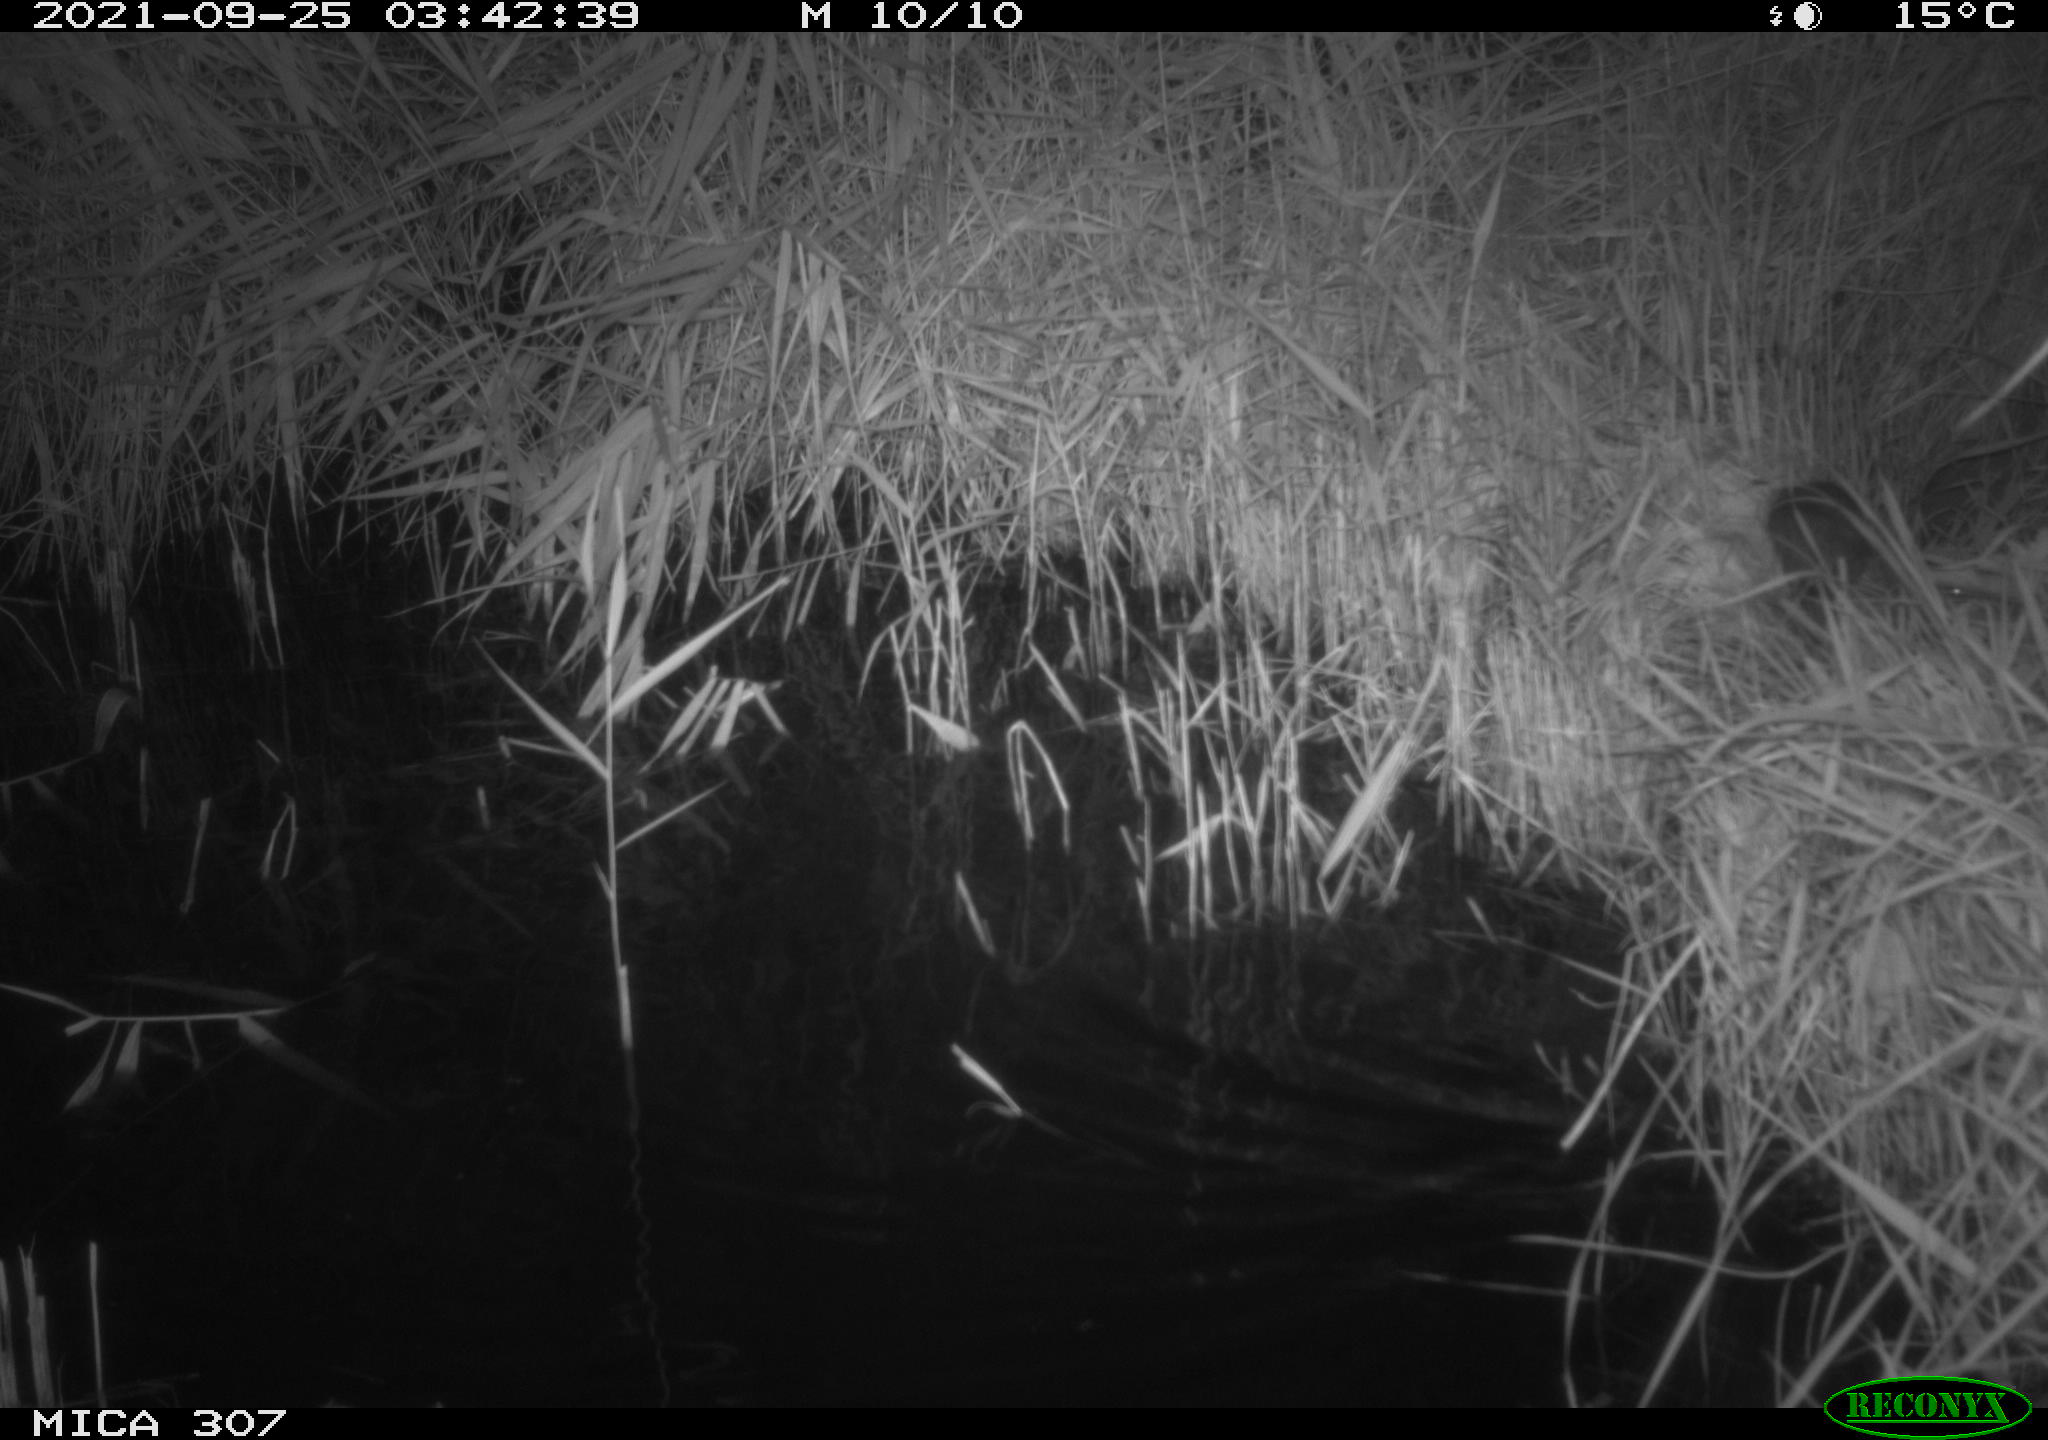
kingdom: Animalia
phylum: Chordata
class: Mammalia
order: Rodentia
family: Muridae
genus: Rattus
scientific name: Rattus norvegicus
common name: Brown rat
